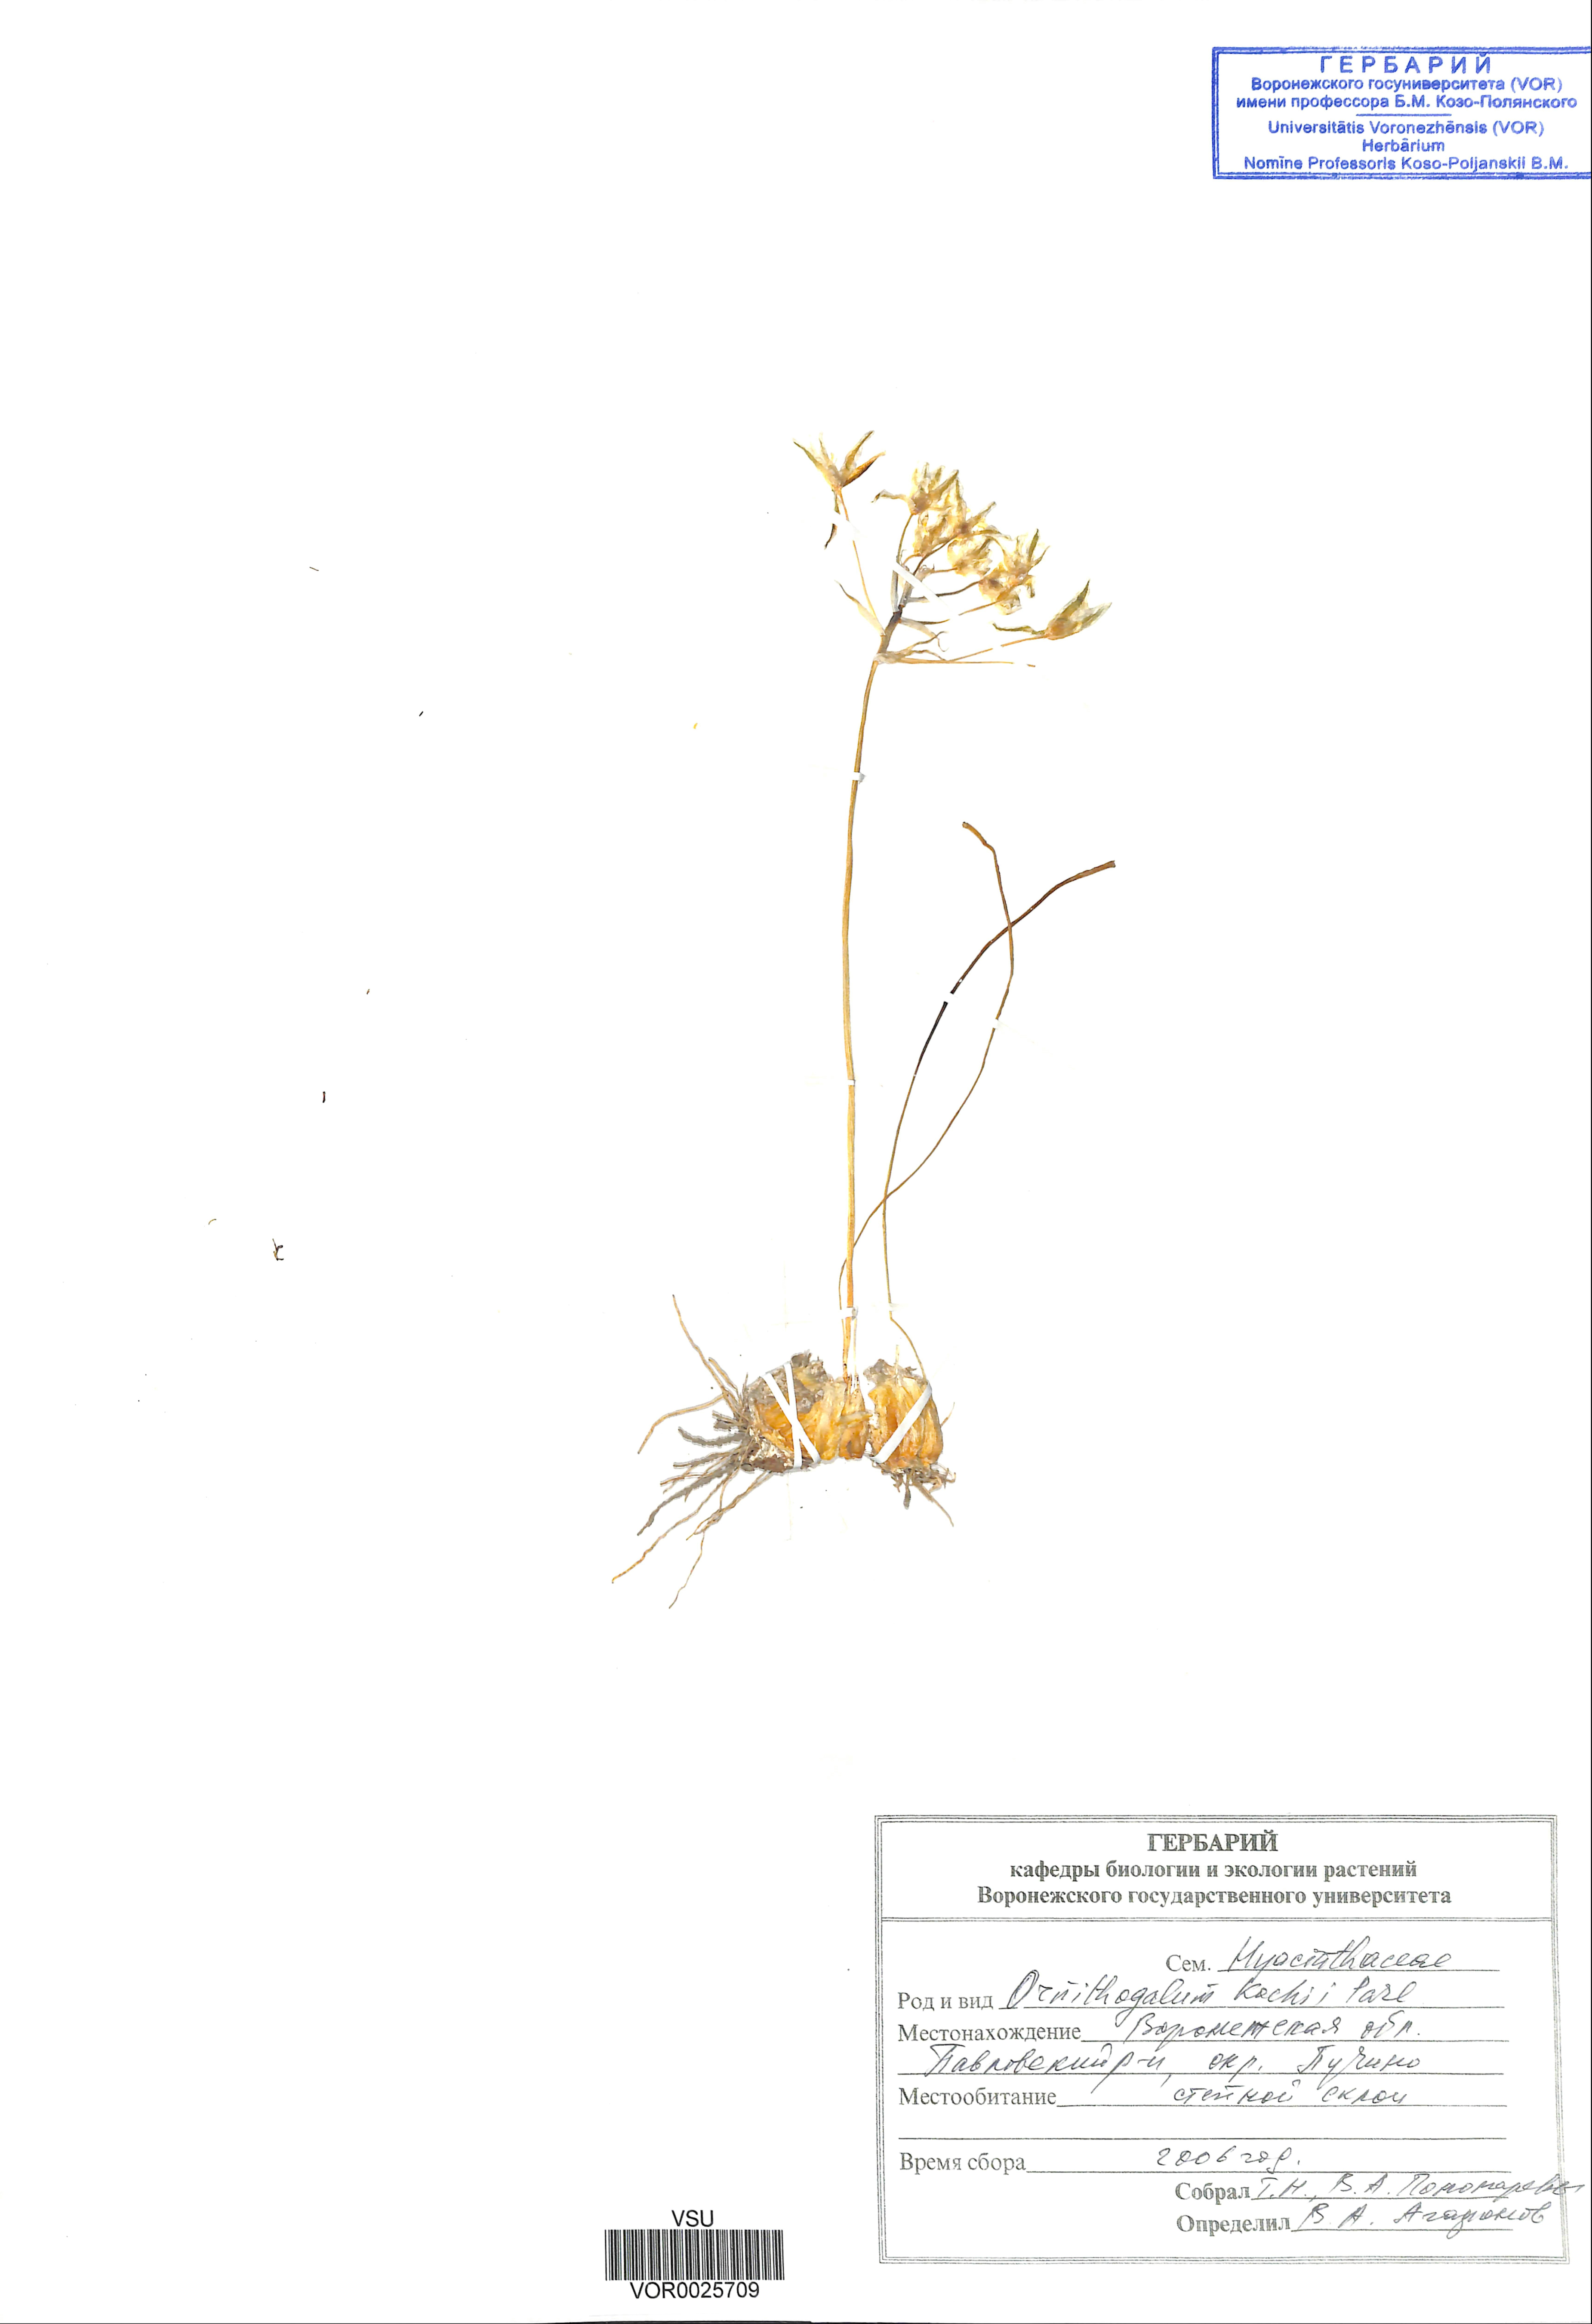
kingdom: Plantae
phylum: Tracheophyta
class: Liliopsida
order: Asparagales
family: Asparagaceae
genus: Ornithogalum
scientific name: Ornithogalum fischerianum
